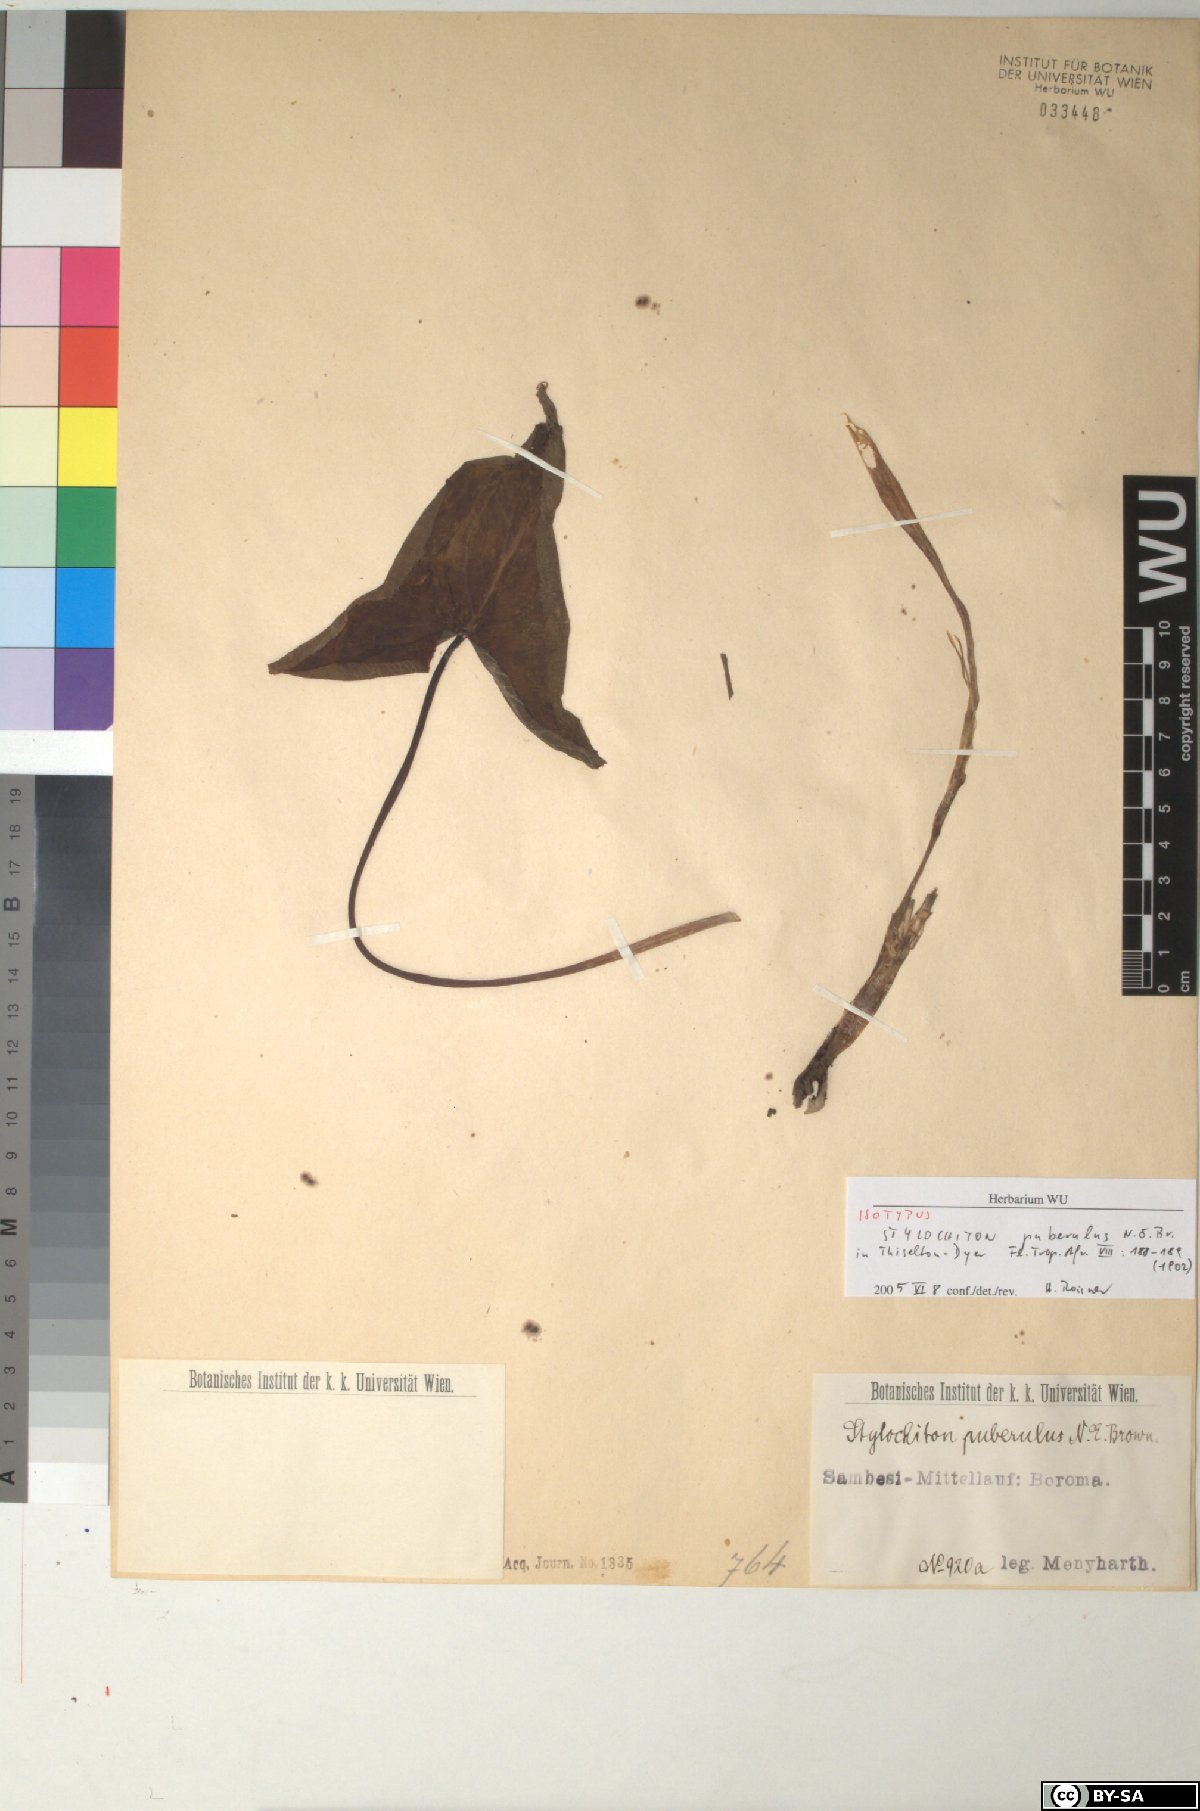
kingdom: Plantae
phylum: Tracheophyta
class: Liliopsida
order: Alismatales
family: Araceae
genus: Stylochaeton
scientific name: Stylochaeton puberulum
